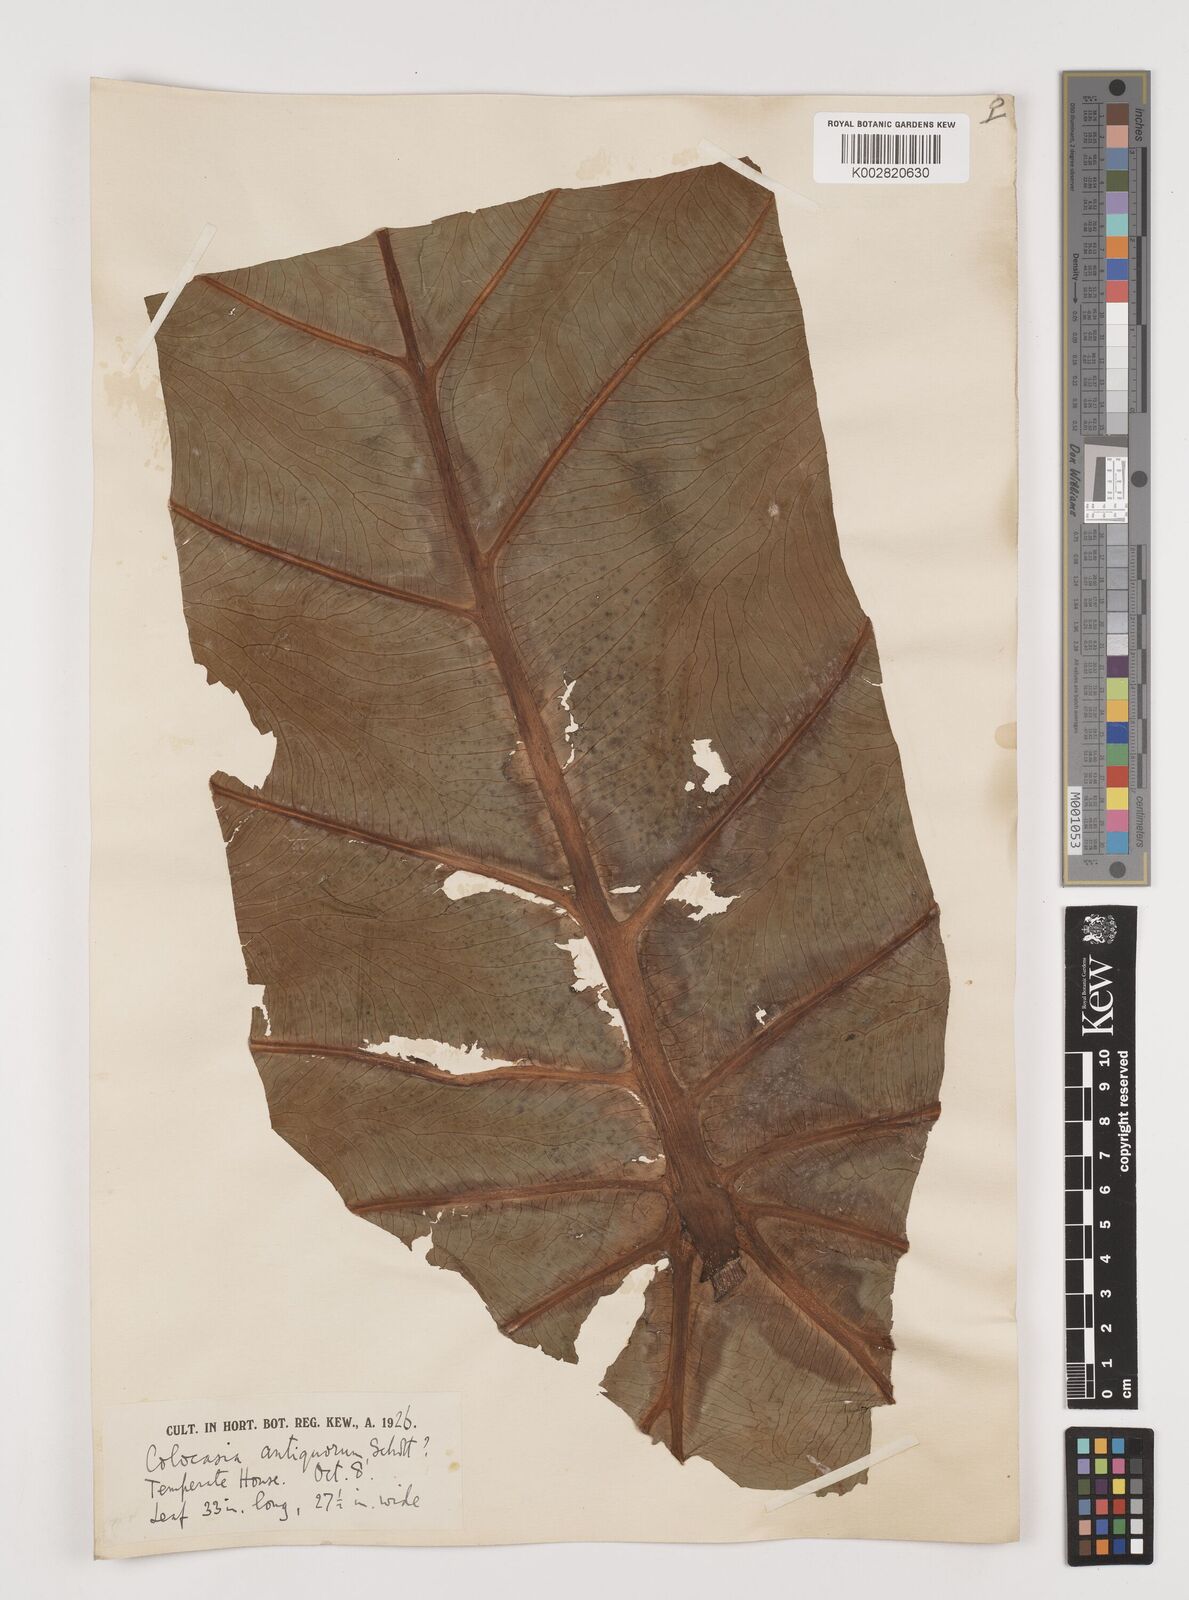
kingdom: Plantae
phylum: Tracheophyta
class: Liliopsida
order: Alismatales
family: Araceae
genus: Leucocasia
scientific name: Leucocasia gigantea
